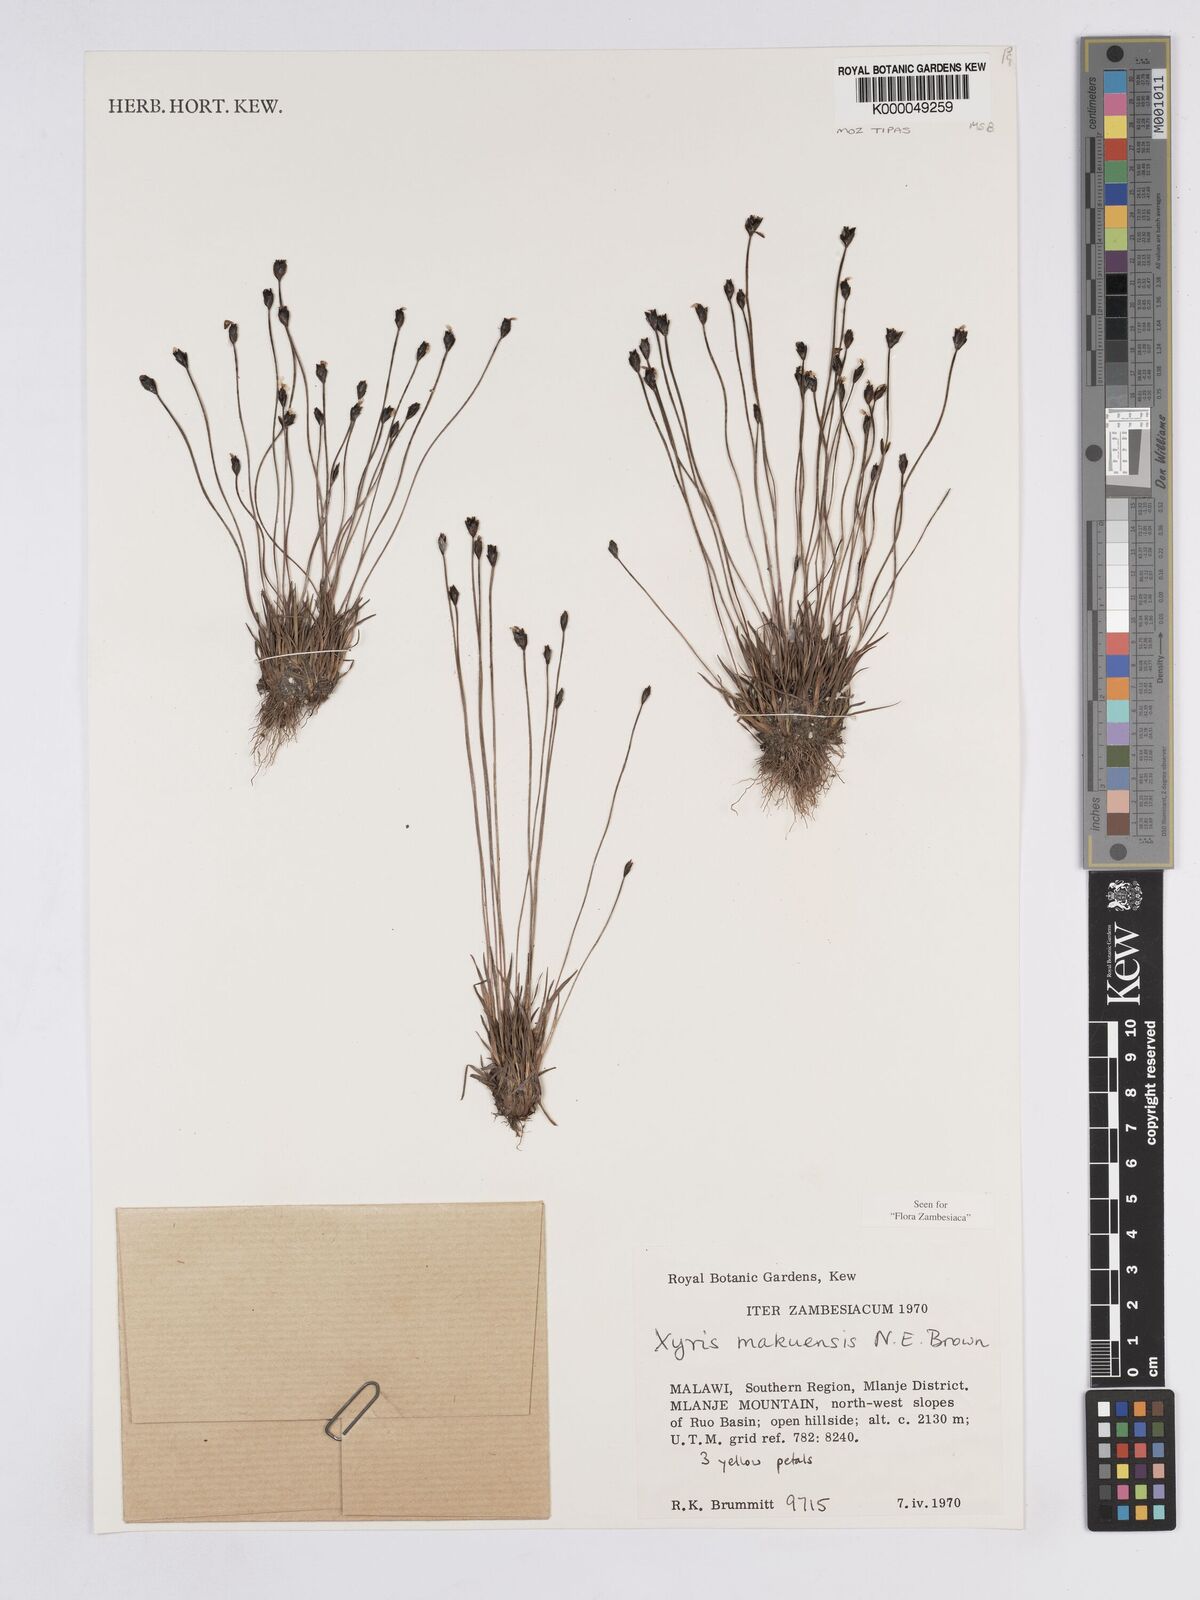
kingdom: Plantae
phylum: Tracheophyta
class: Liliopsida
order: Poales
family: Xyridaceae
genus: Xyris
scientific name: Xyris makuensis
